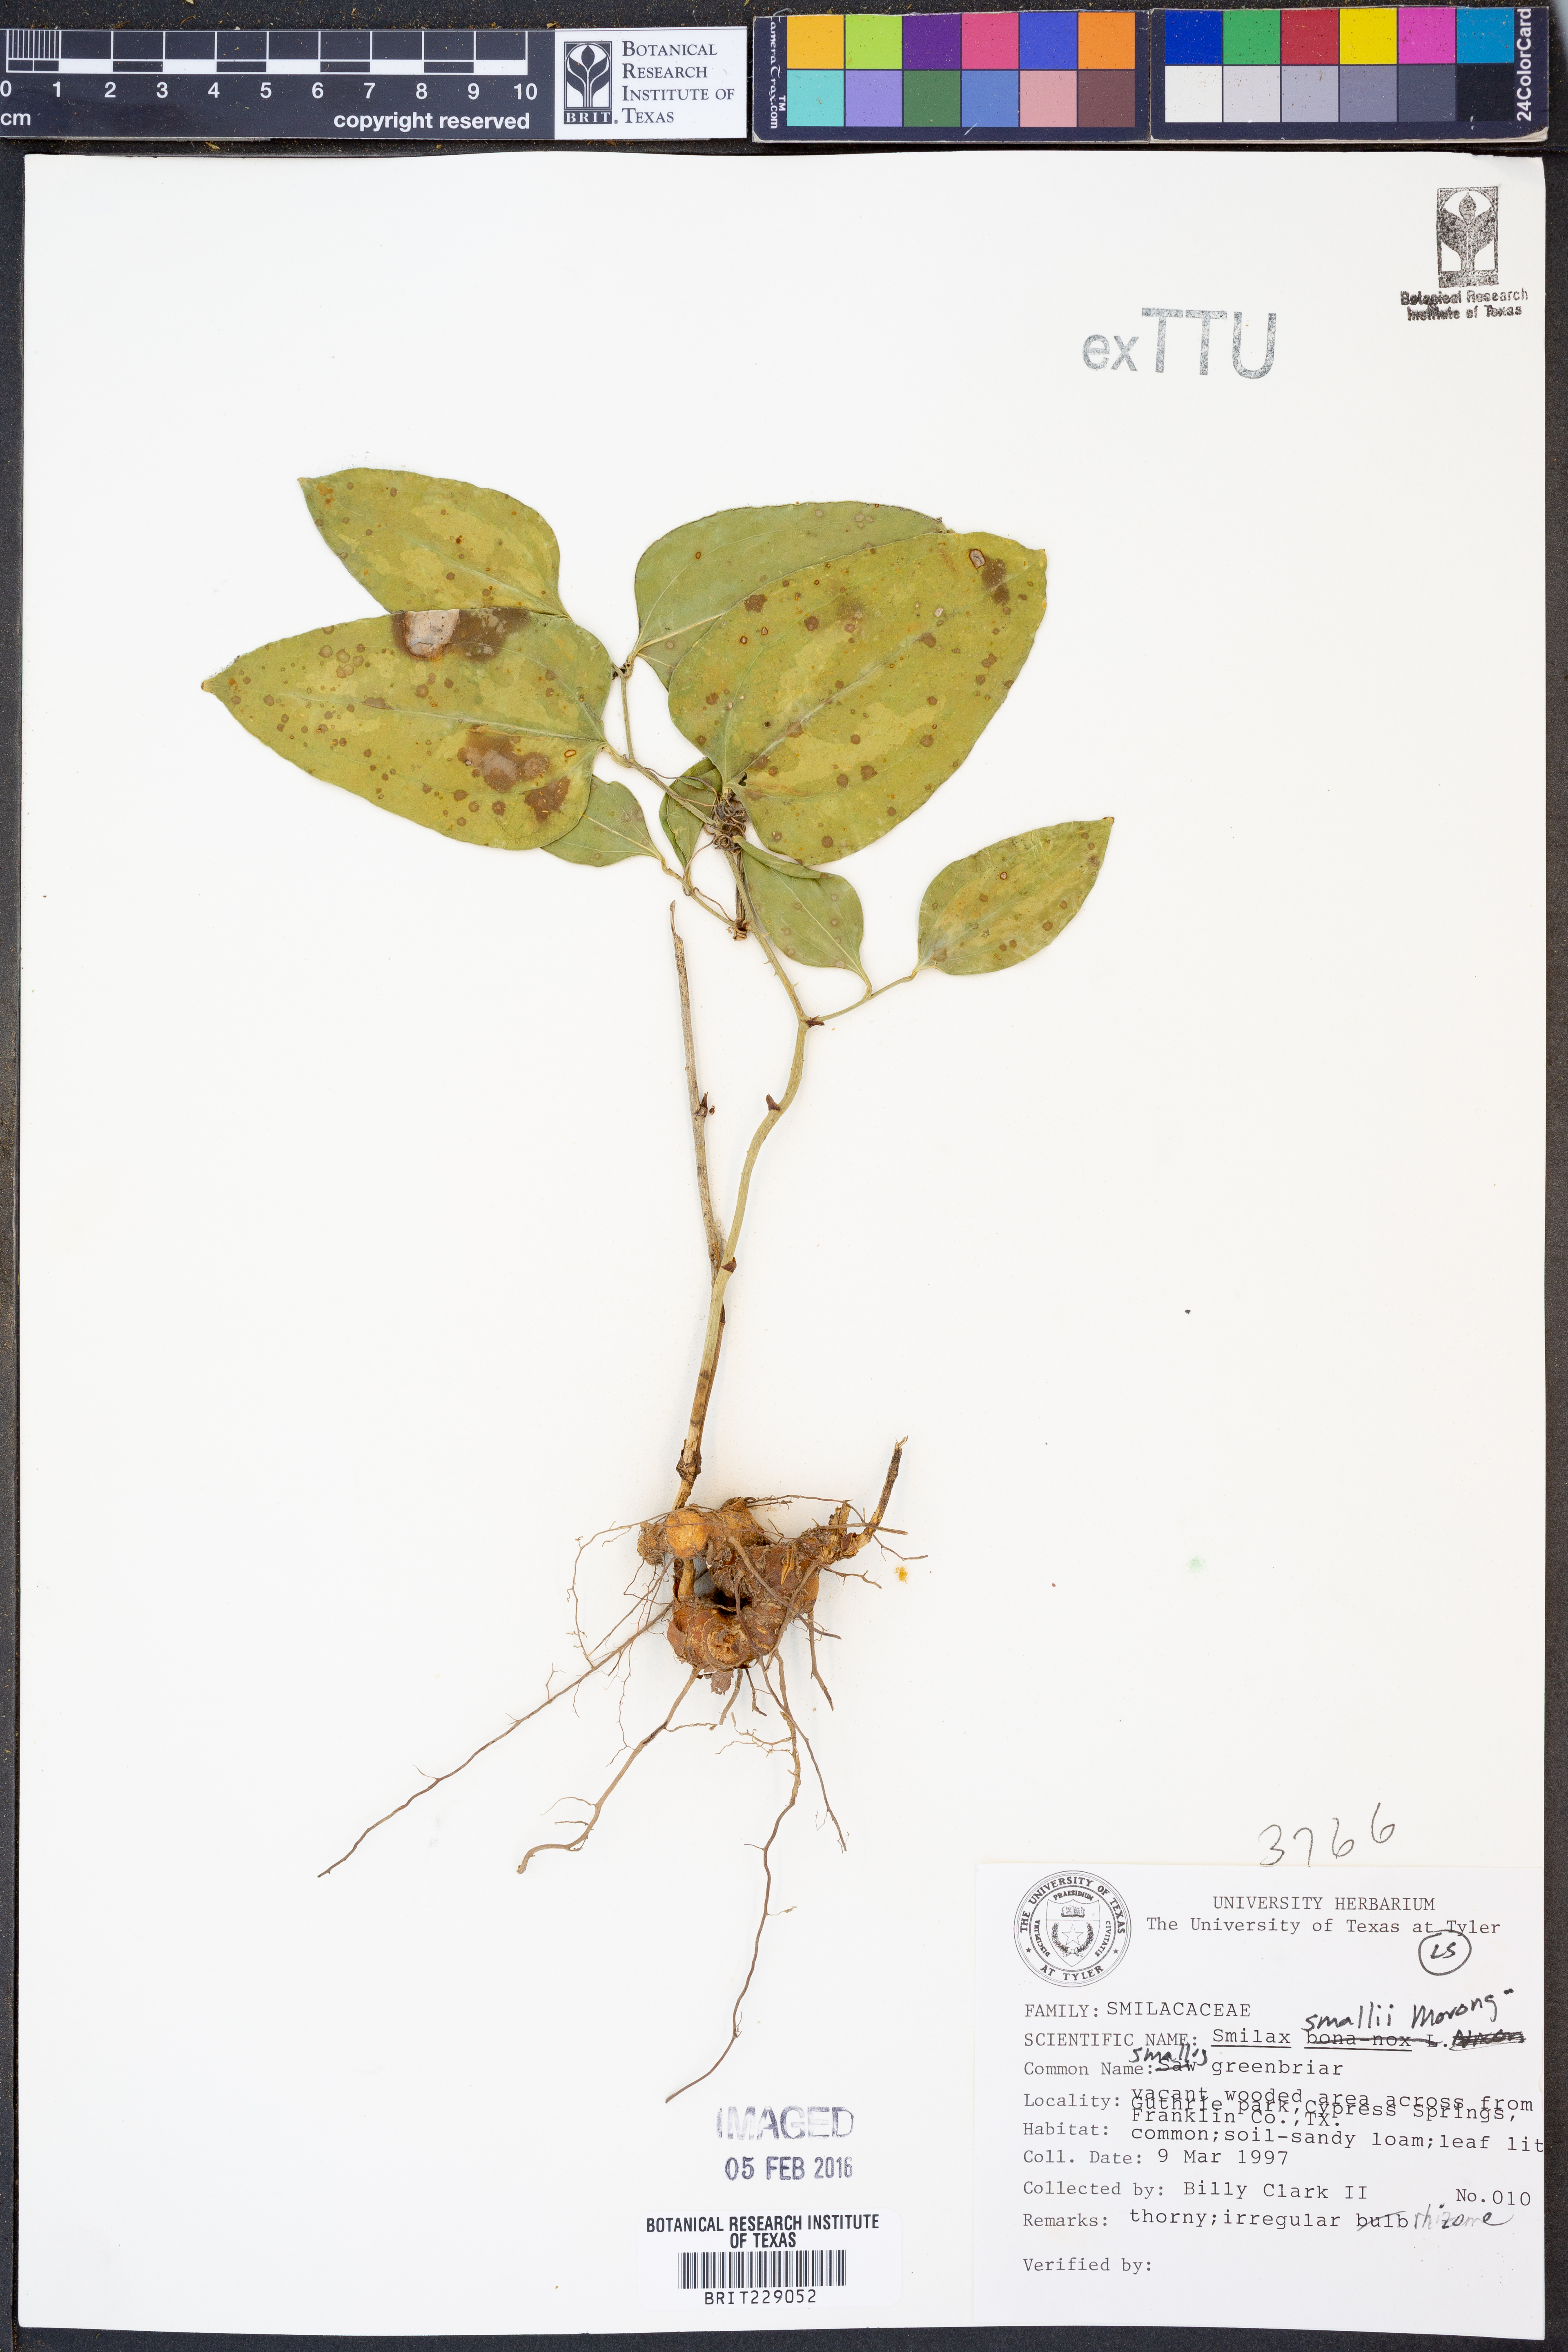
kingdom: Plantae
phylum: Tracheophyta
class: Liliopsida
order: Liliales
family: Smilacaceae
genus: Smilax
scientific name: Smilax maritima
